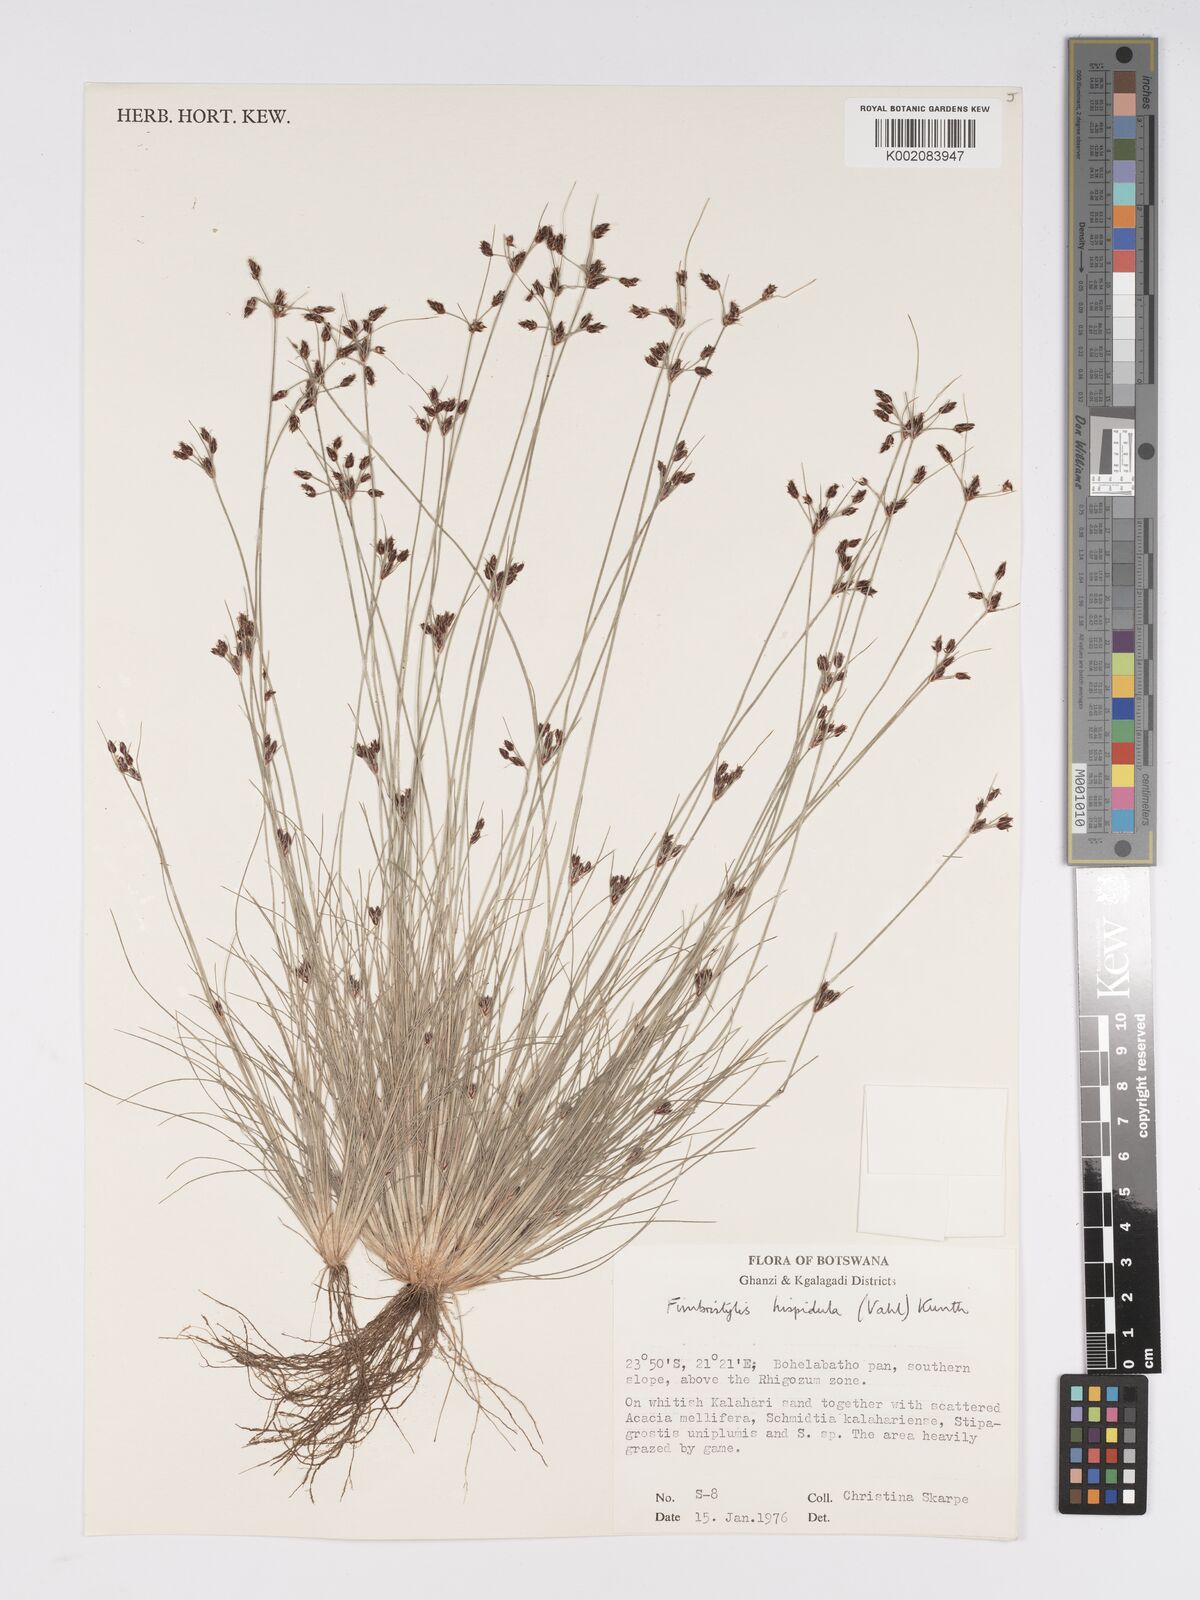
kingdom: Plantae
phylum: Tracheophyta
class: Liliopsida
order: Poales
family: Cyperaceae
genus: Bulbostylis
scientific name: Bulbostylis hispidula
